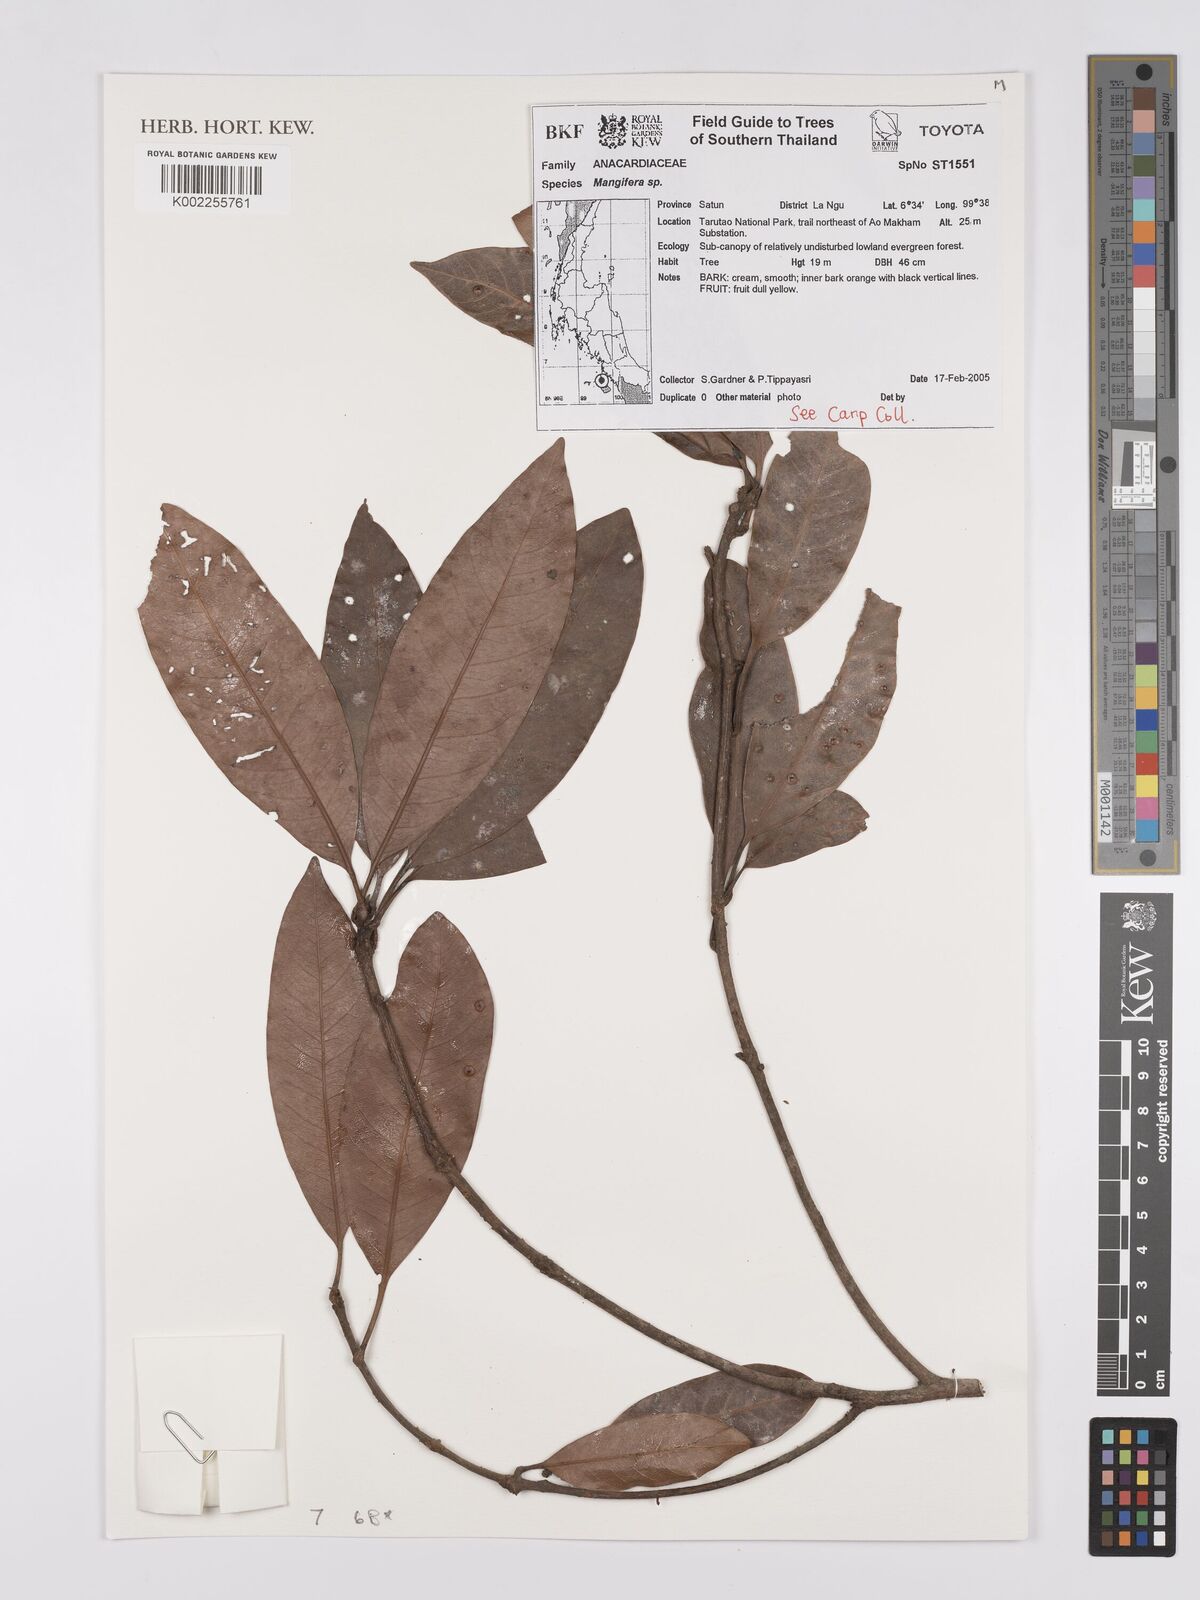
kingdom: Plantae
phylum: Tracheophyta
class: Magnoliopsida
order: Sapindales
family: Anacardiaceae
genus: Mangifera
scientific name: Mangifera
